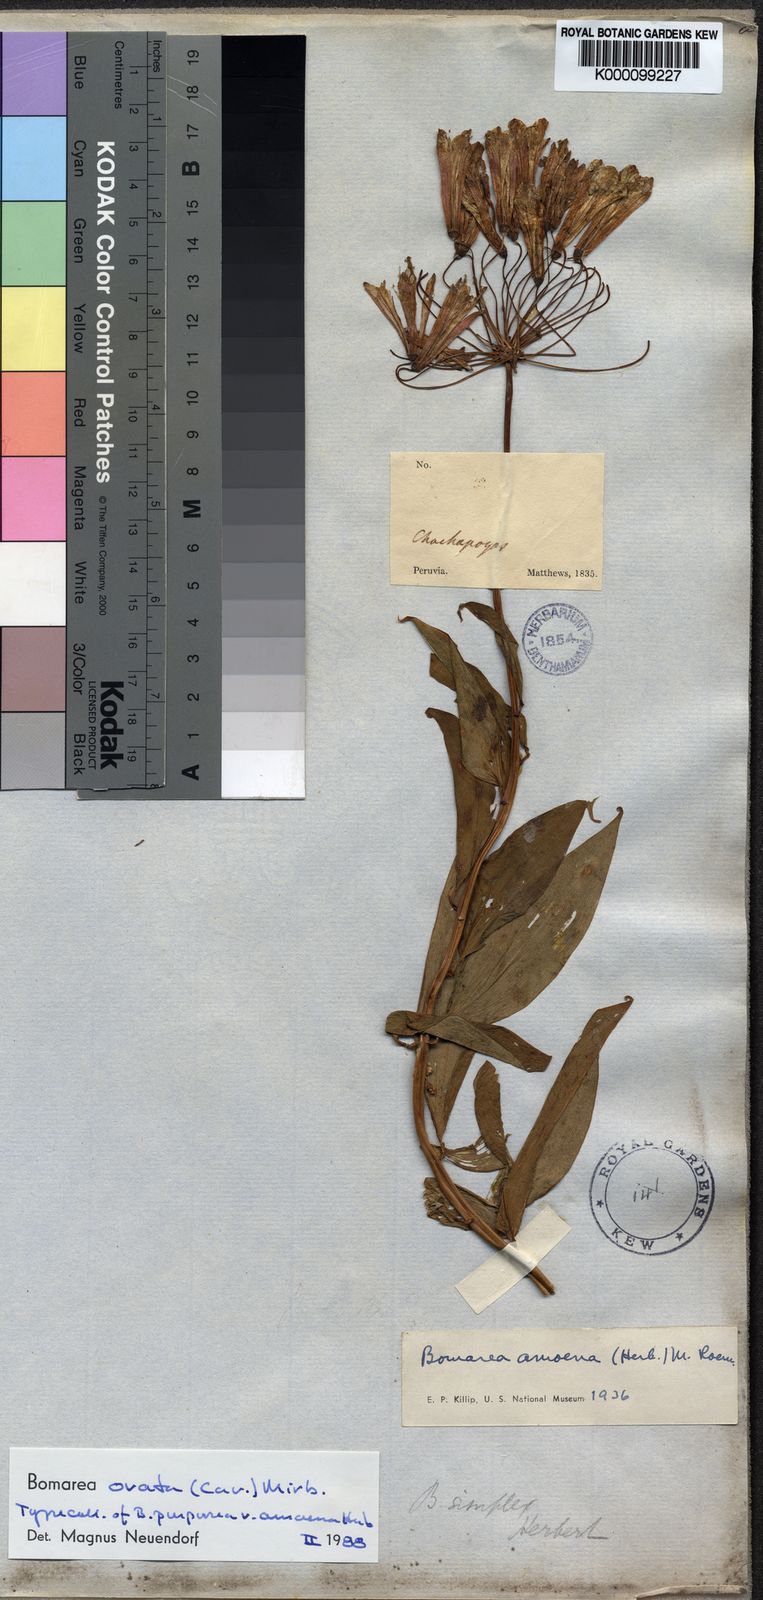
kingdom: Plantae
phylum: Tracheophyta
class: Liliopsida
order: Liliales
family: Alstroemeriaceae
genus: Bomarea
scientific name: Bomarea ovata
